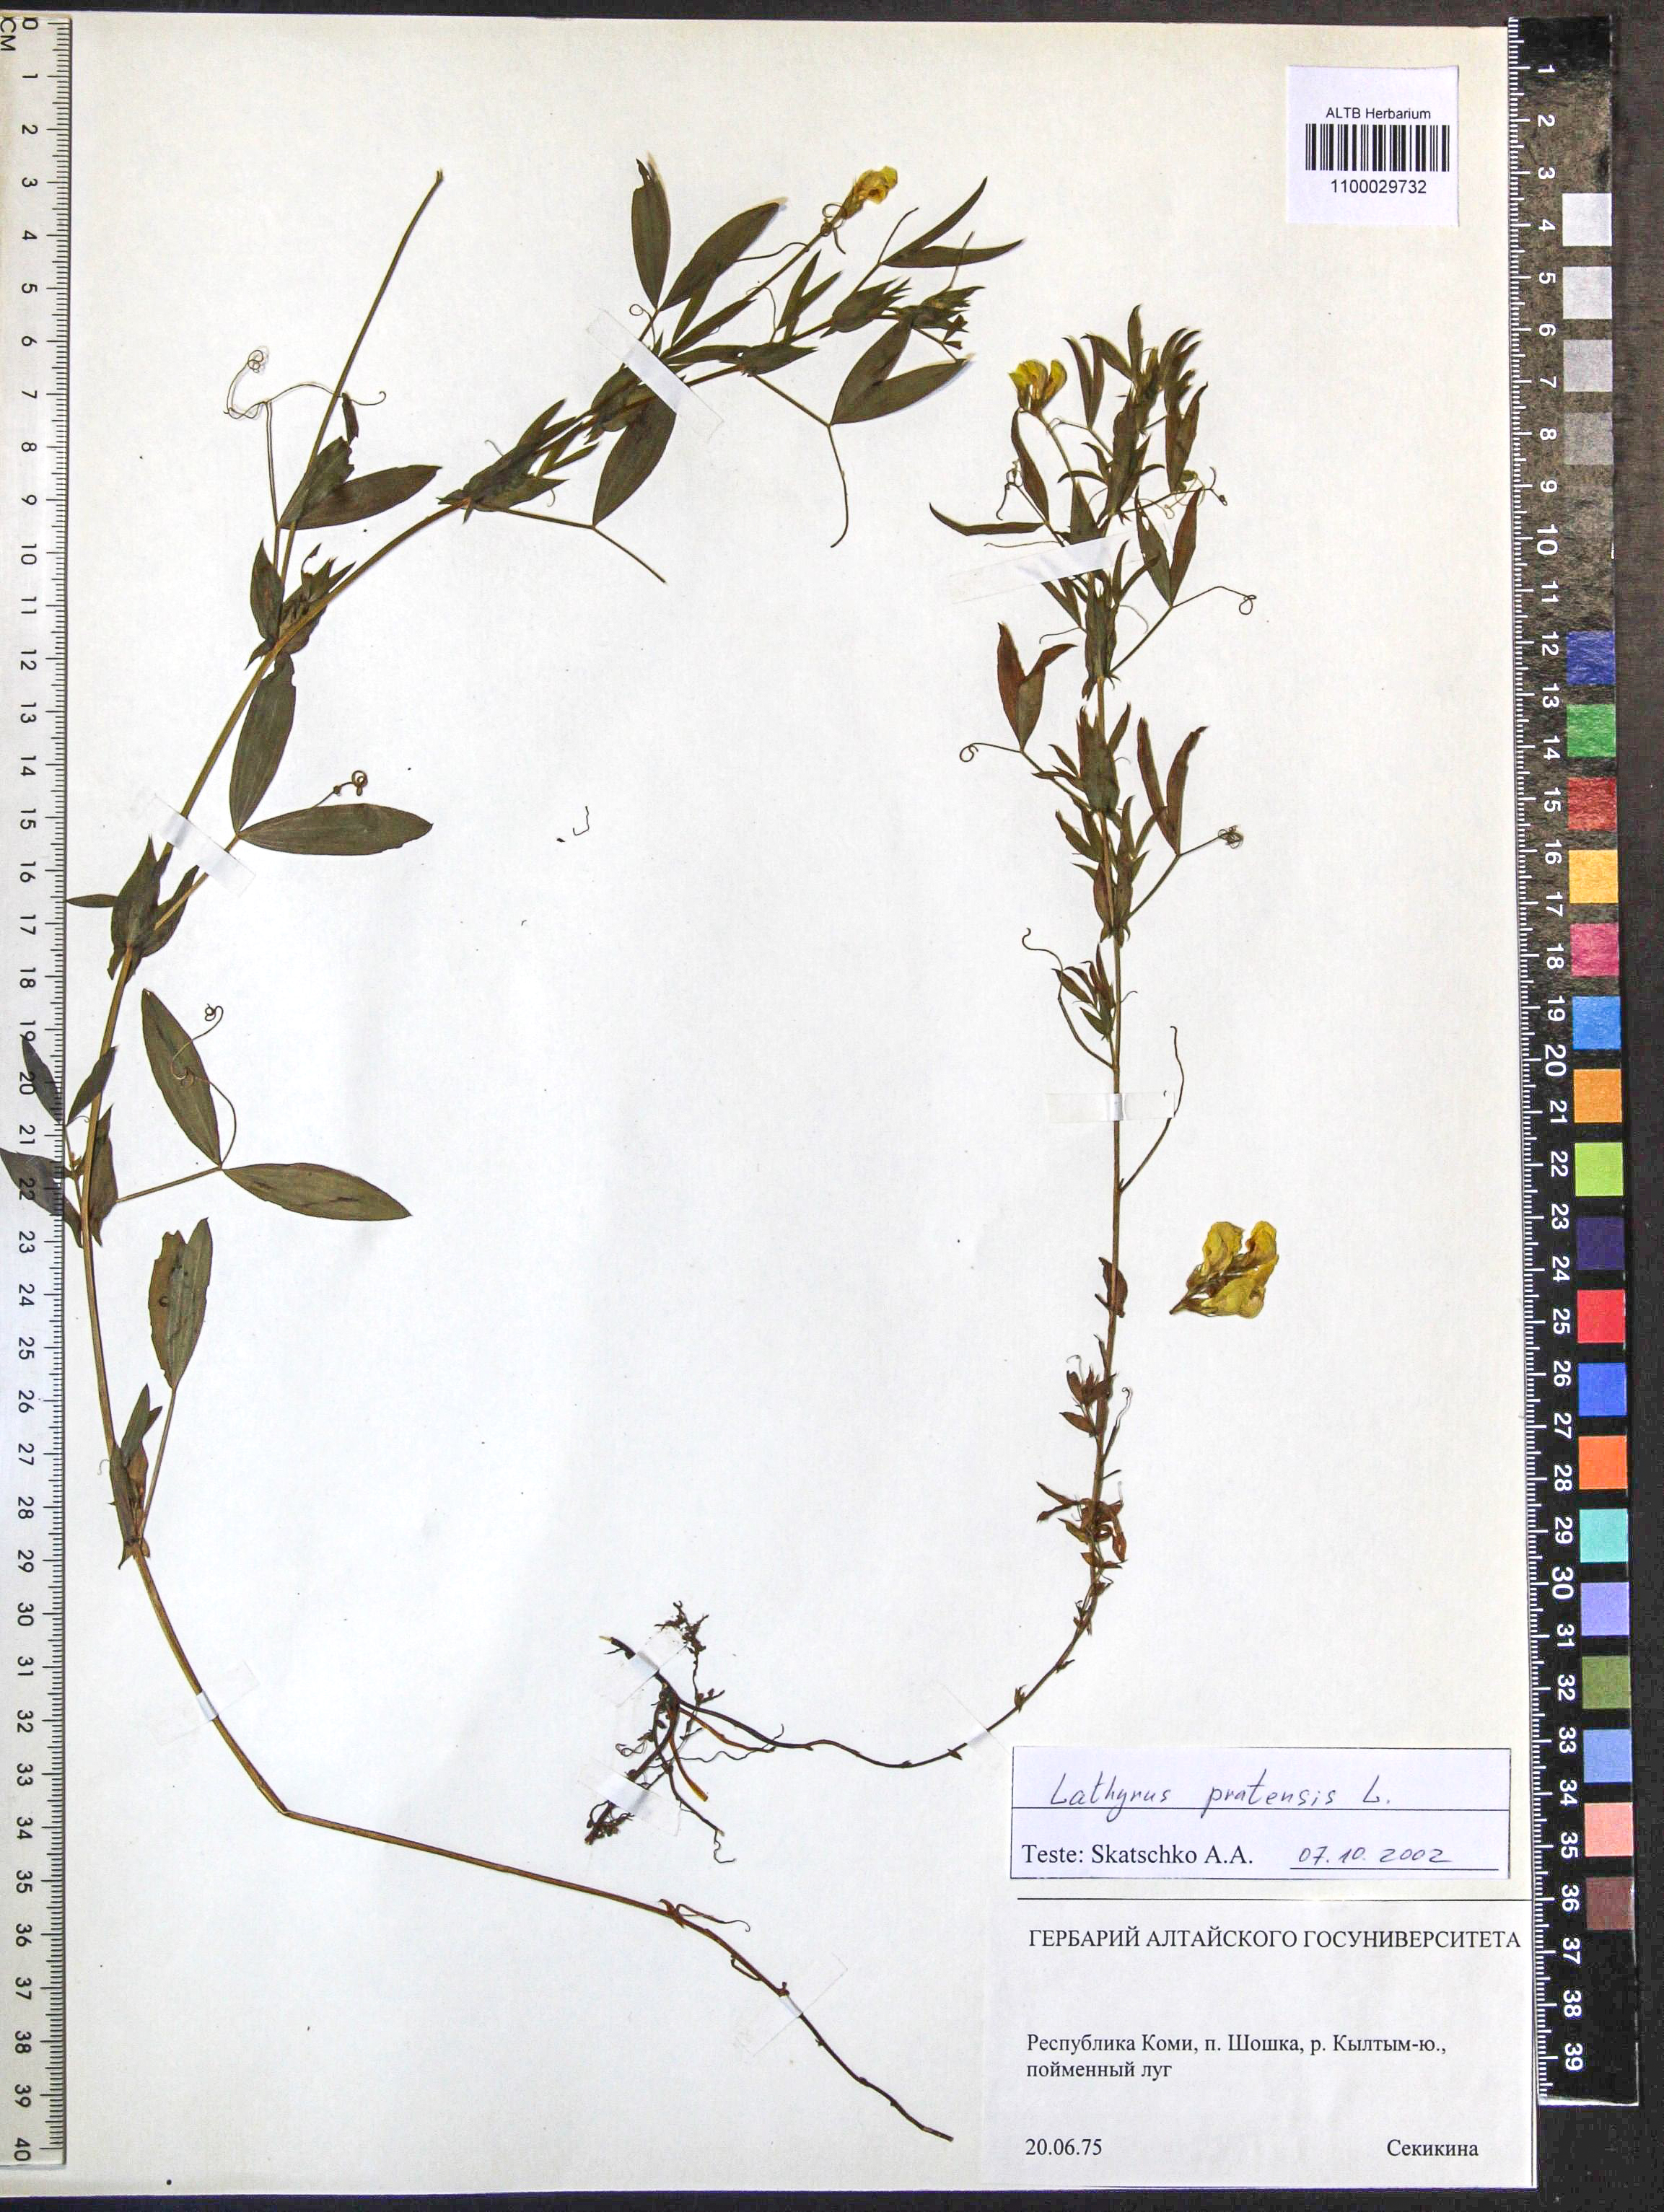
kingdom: Plantae
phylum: Tracheophyta
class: Magnoliopsida
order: Fabales
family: Fabaceae
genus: Lathyrus
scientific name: Lathyrus pratensis
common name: Meadow vetchling
